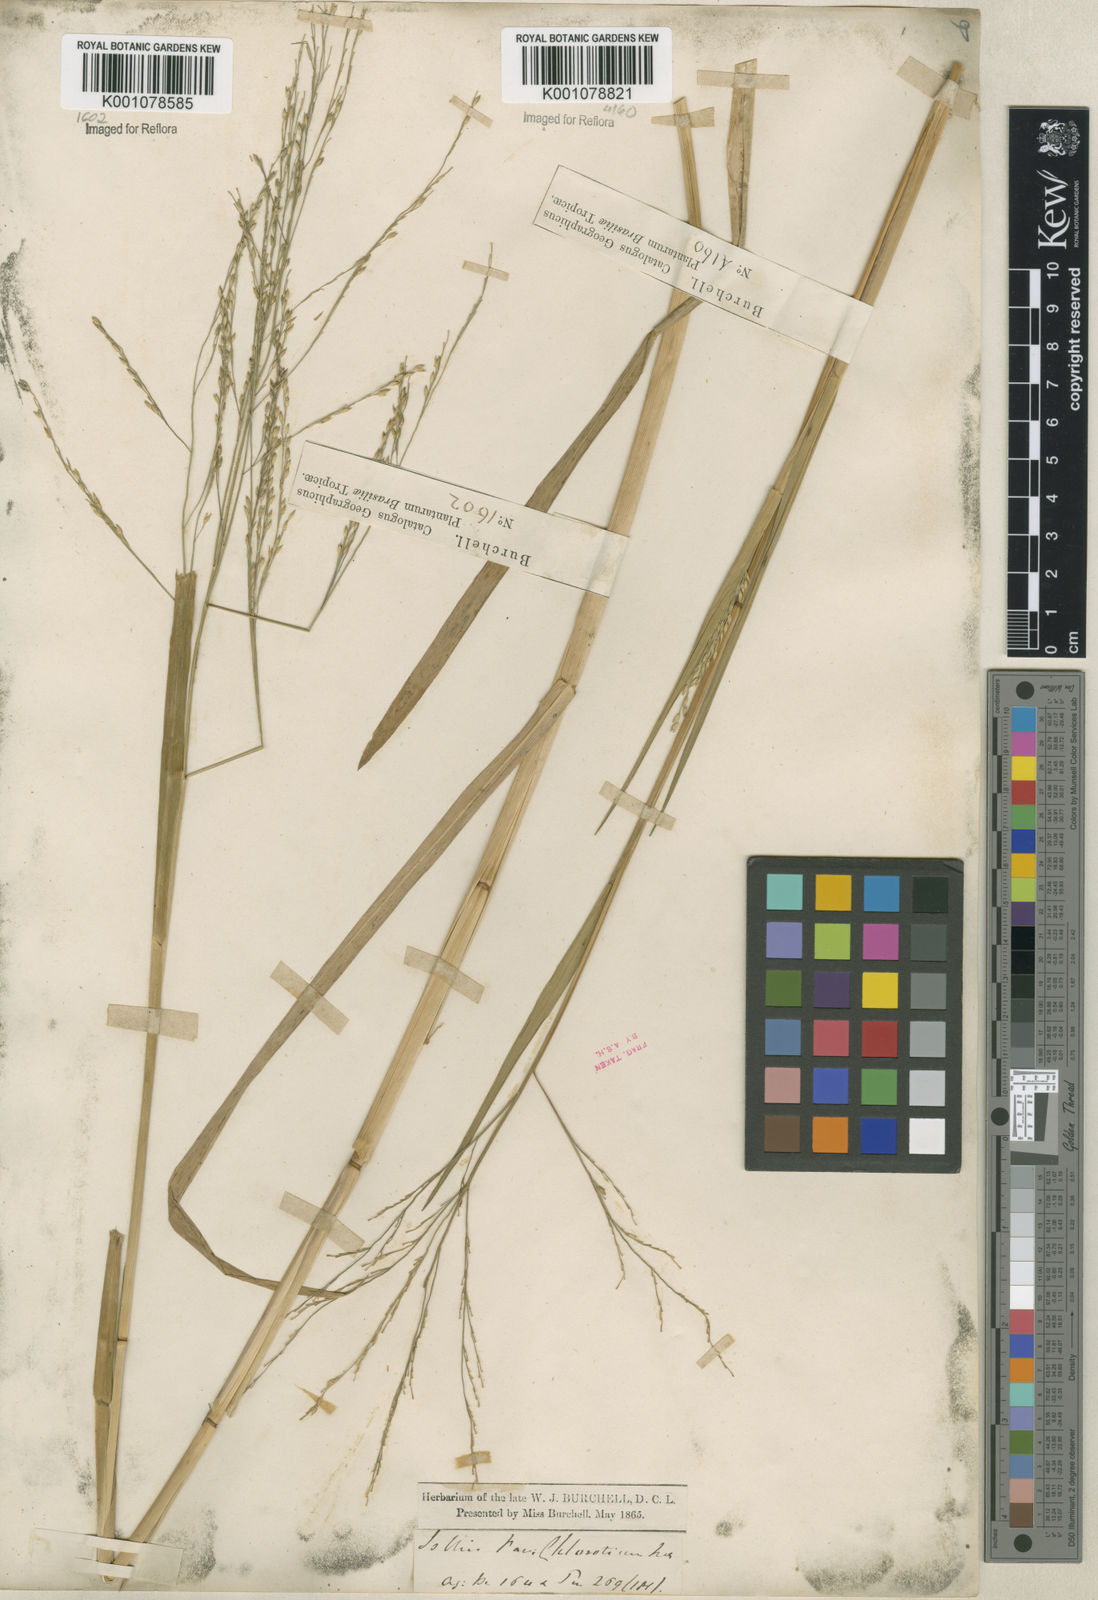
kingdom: Plantae
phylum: Tracheophyta
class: Liliopsida
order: Poales
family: Poaceae
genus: Panicum
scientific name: Panicum dichotomiflorum
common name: Autumn millet
